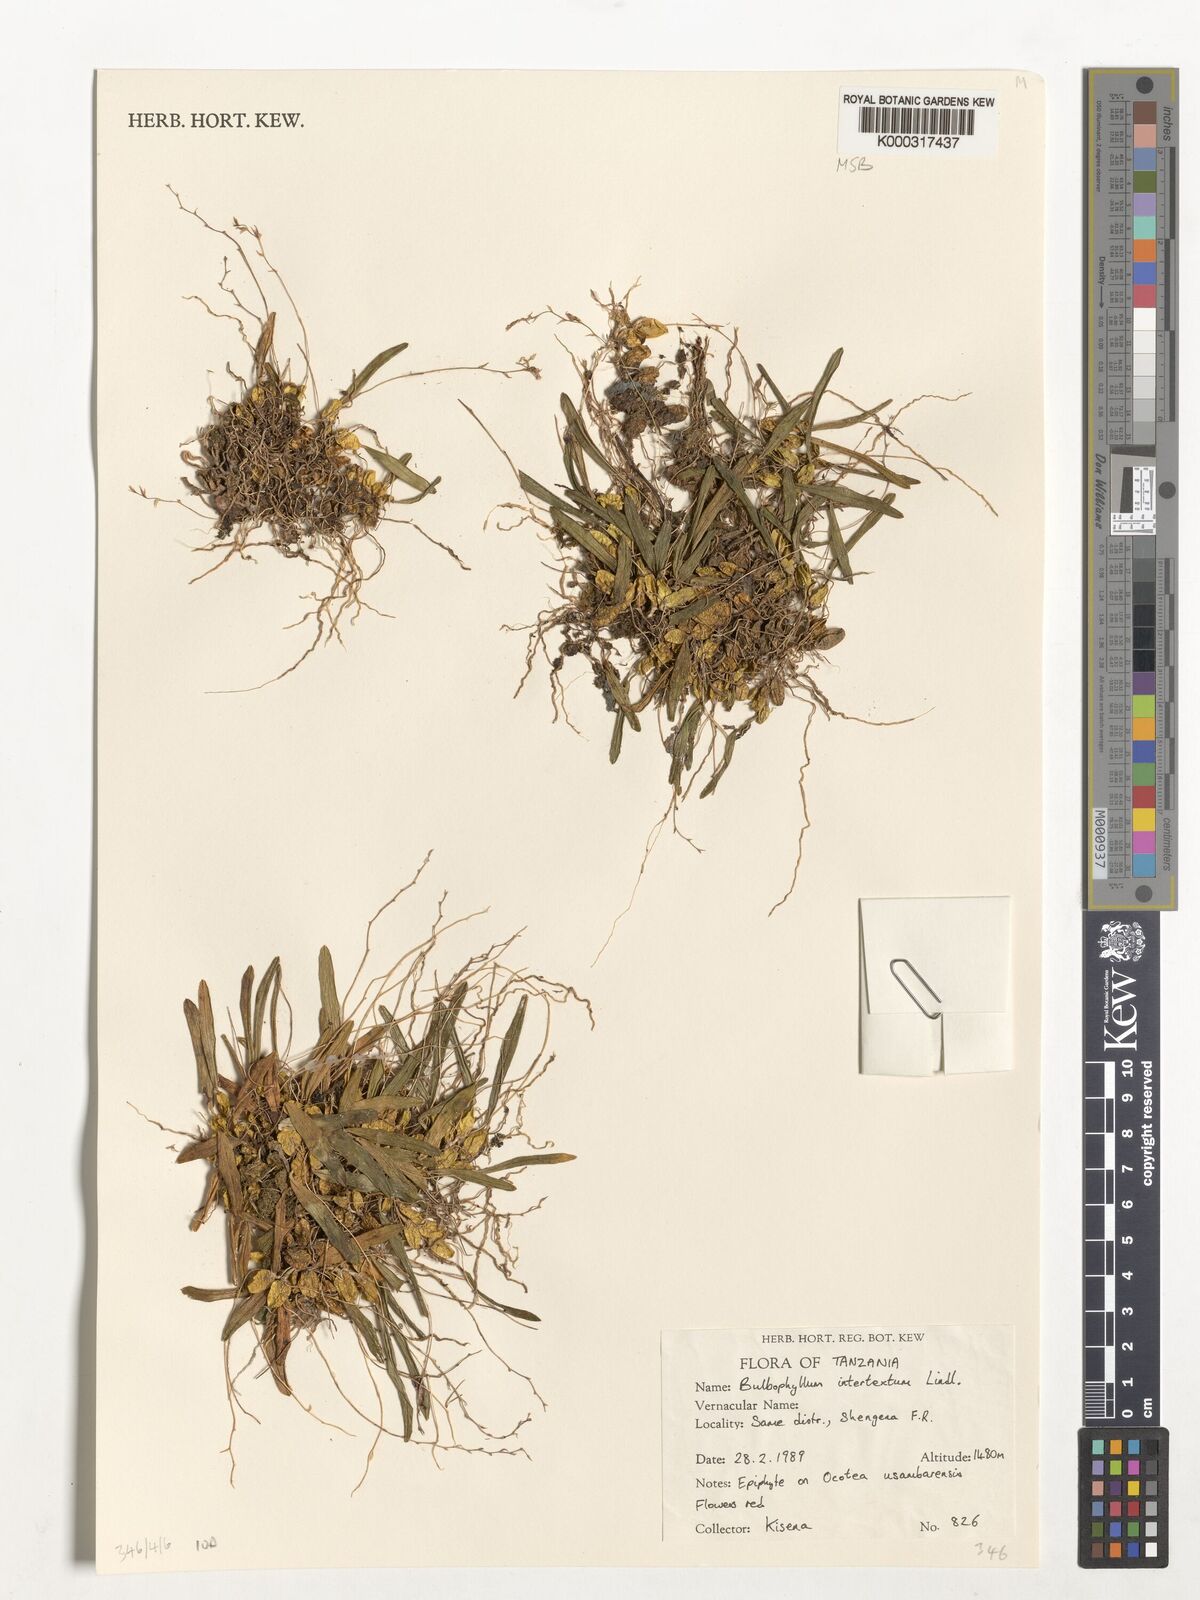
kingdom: Plantae
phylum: Tracheophyta
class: Liliopsida
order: Asparagales
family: Orchidaceae
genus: Bulbophyllum
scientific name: Bulbophyllum intertextum
